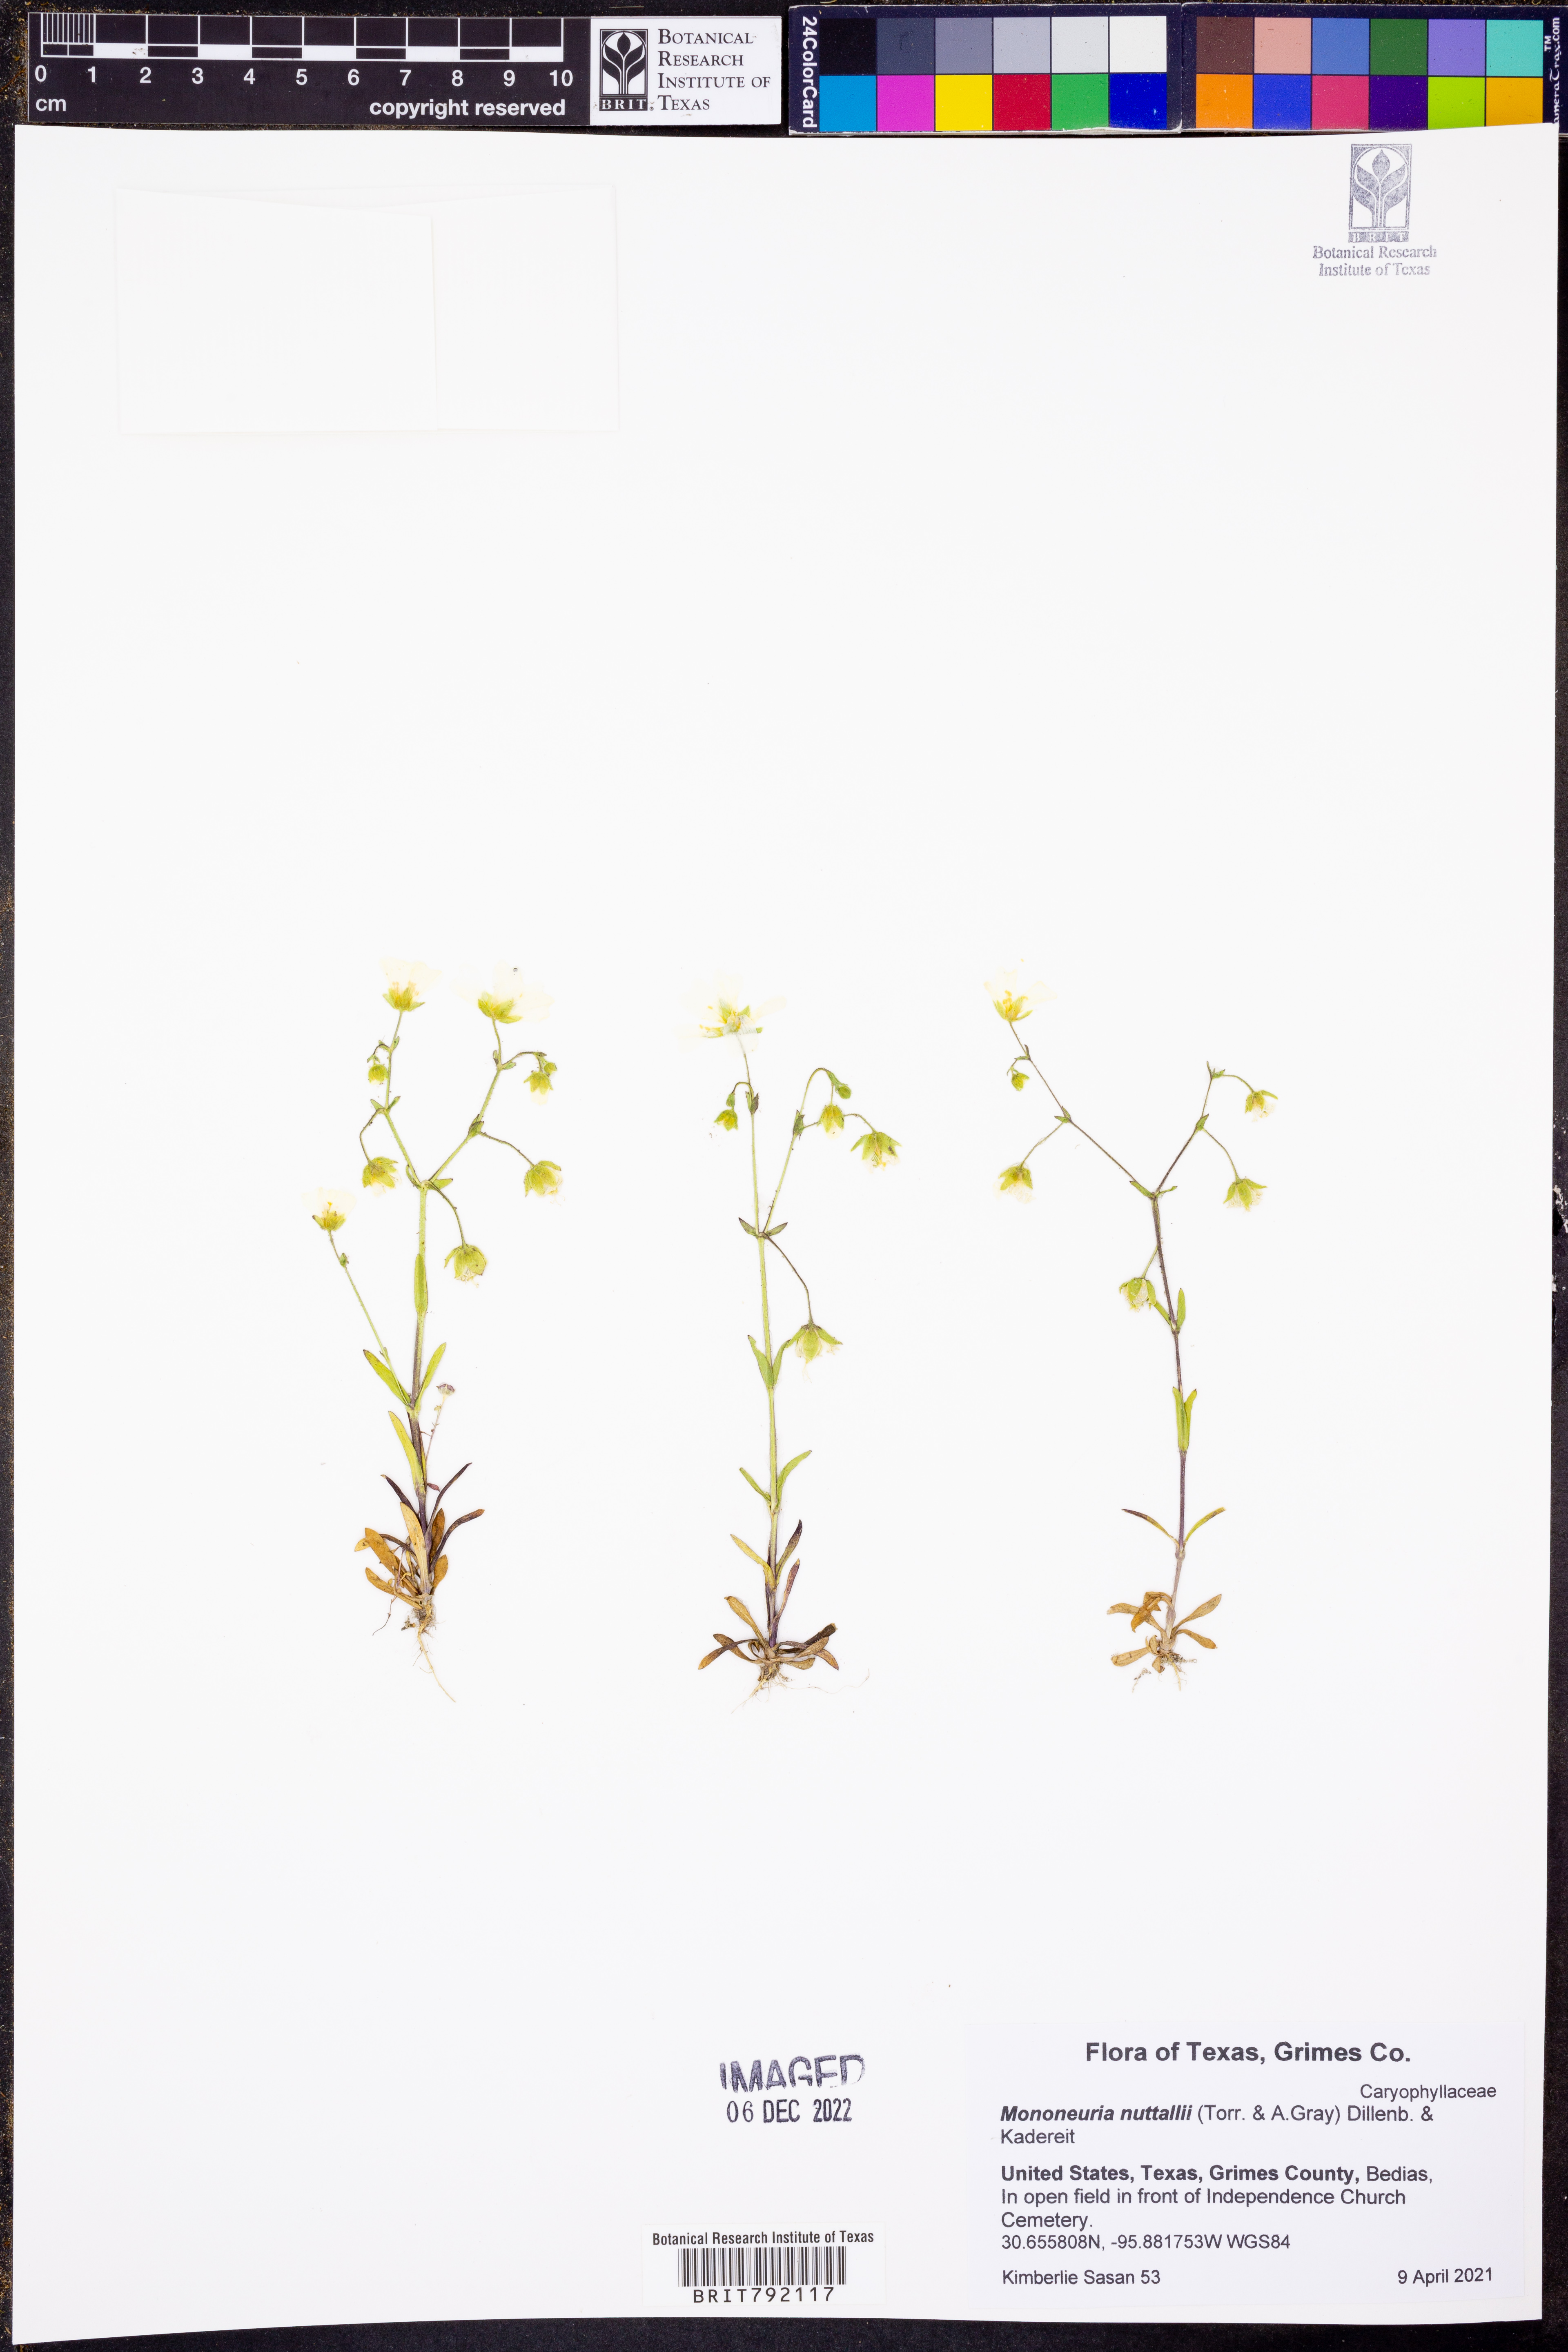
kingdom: Plantae
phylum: Tracheophyta
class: Magnoliopsida
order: Caryophyllales
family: Caryophyllaceae
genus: Geocarpon
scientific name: Geocarpon nuttallii
